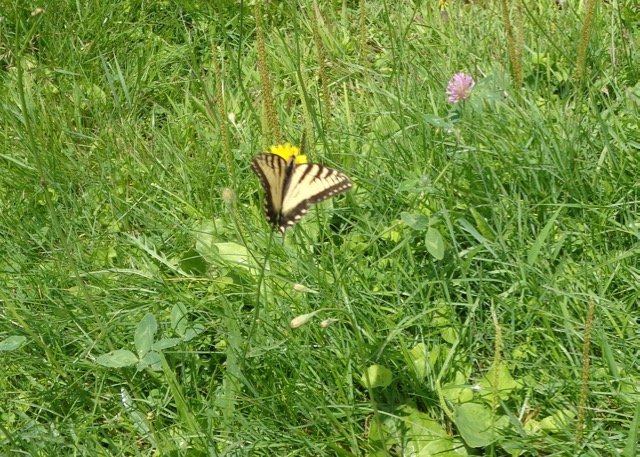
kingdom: Animalia
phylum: Arthropoda
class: Insecta
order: Lepidoptera
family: Papilionidae
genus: Pterourus
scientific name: Pterourus
